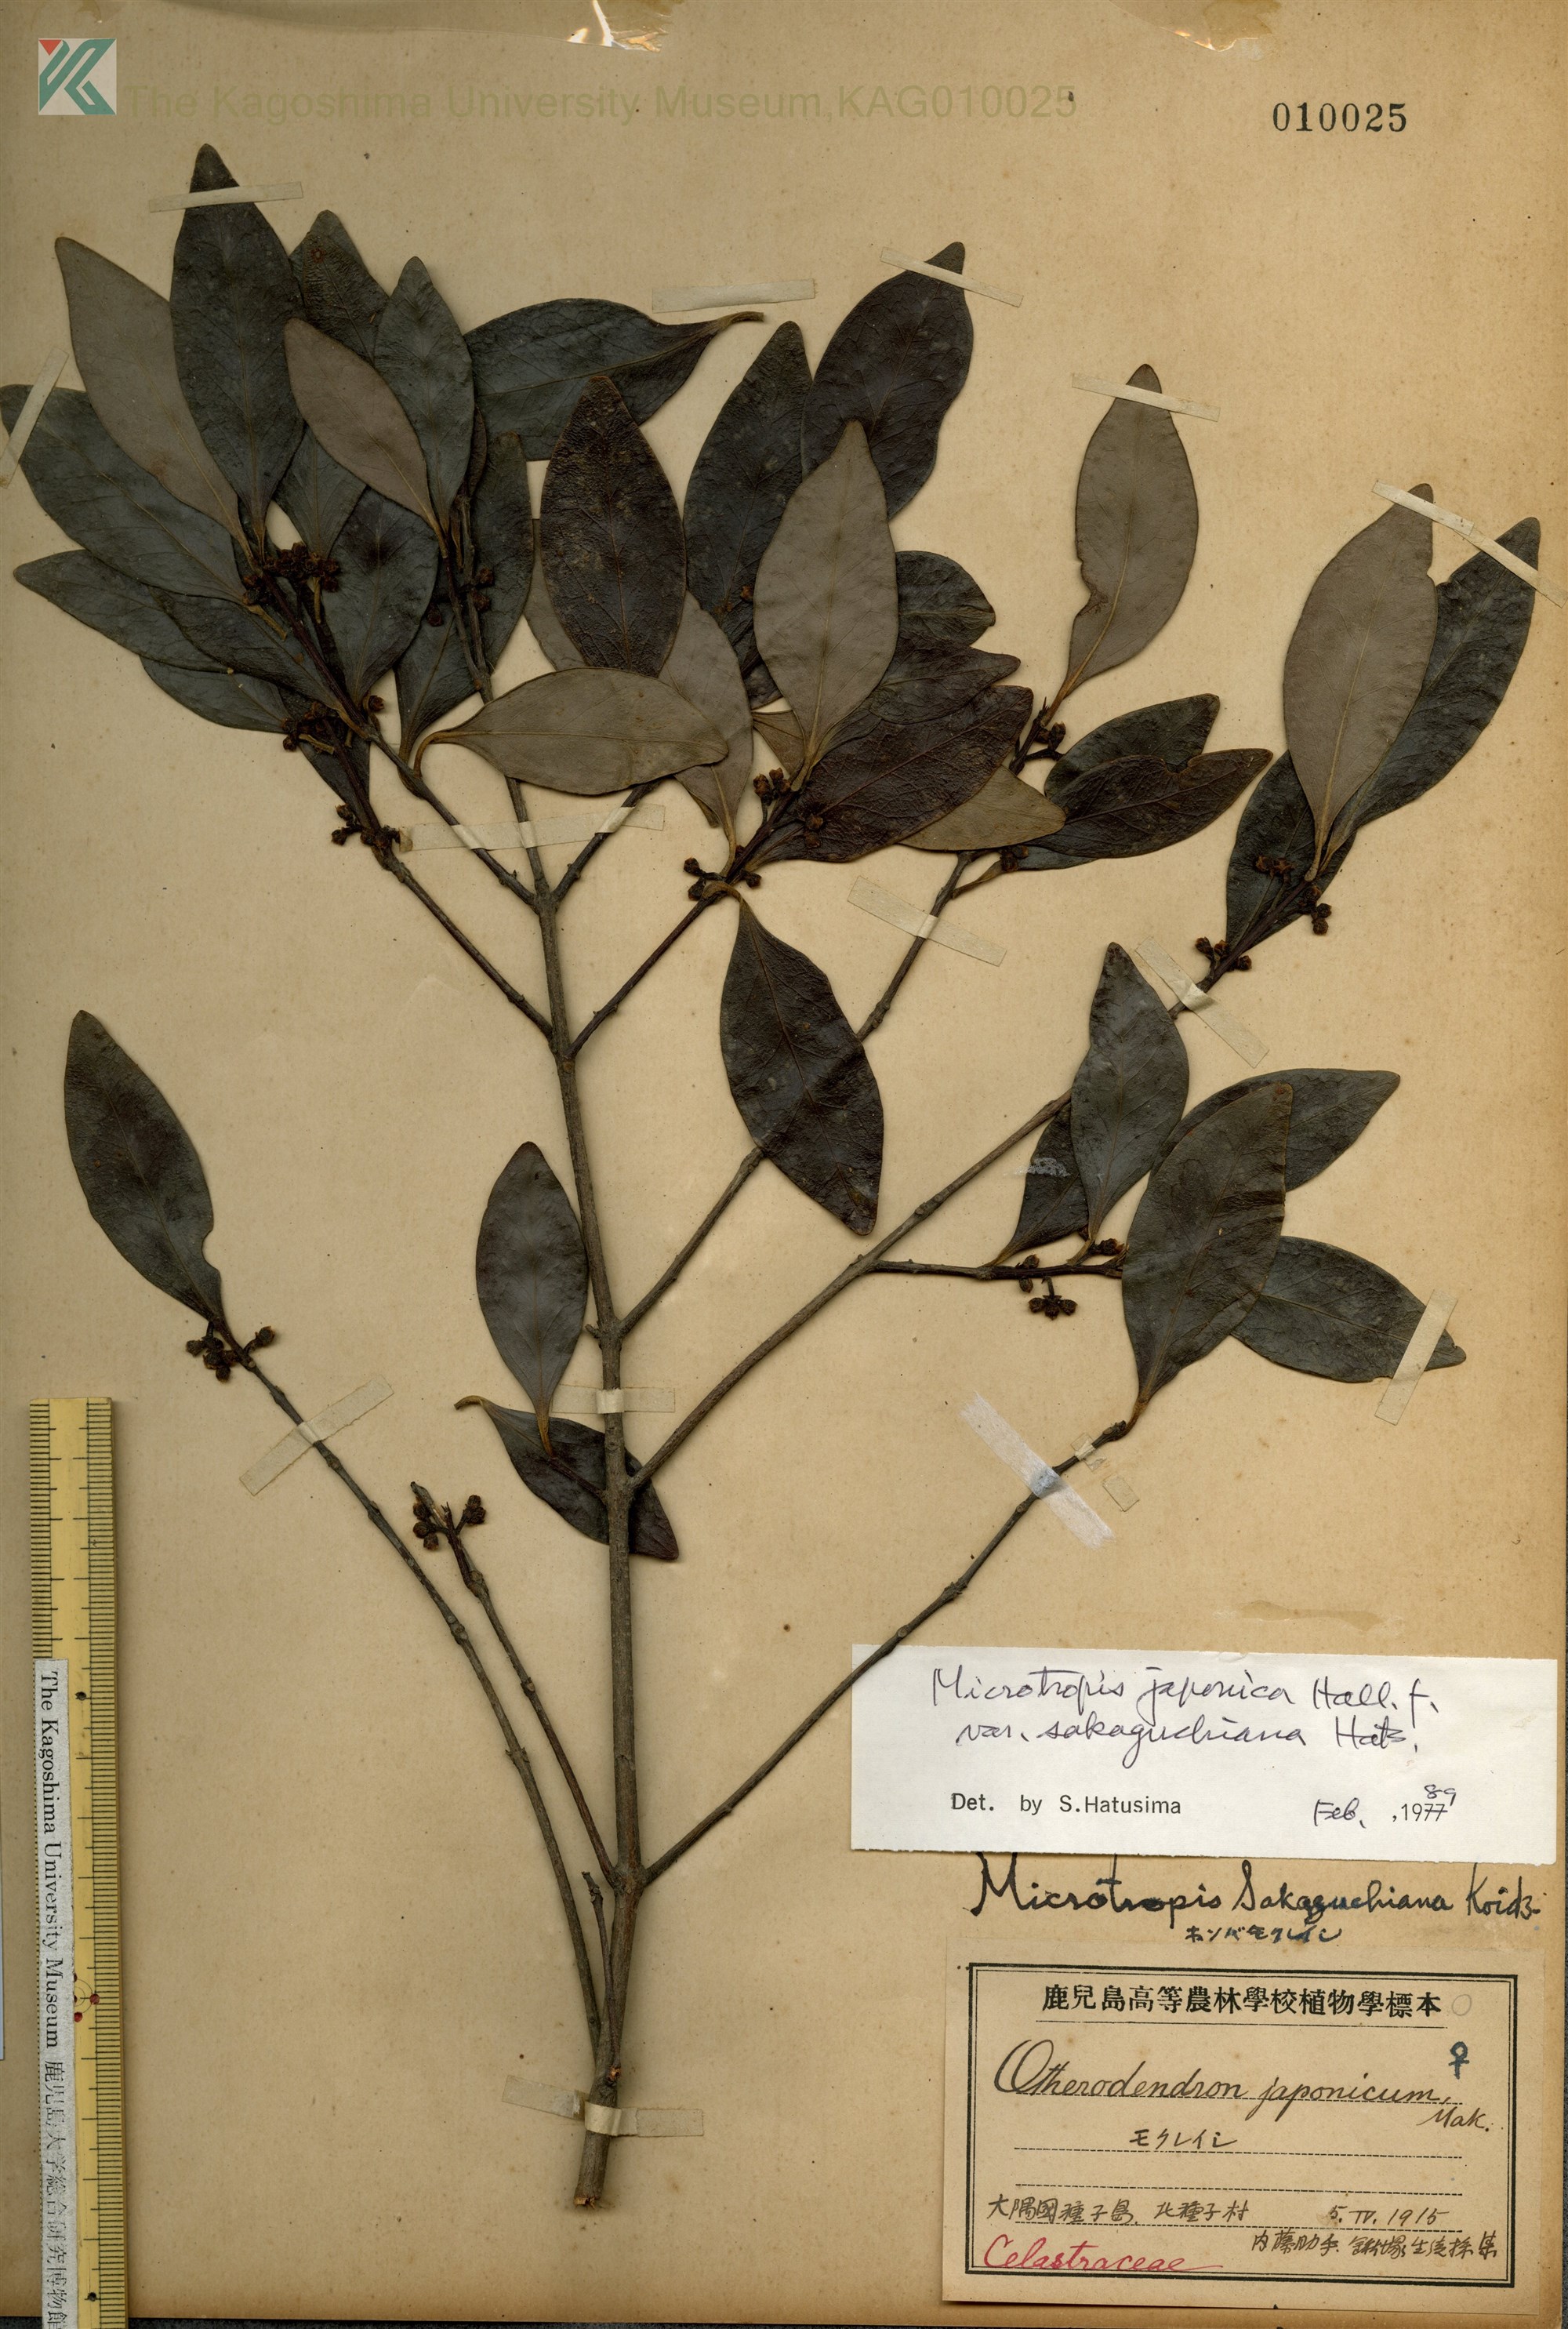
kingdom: Plantae
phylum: Tracheophyta
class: Magnoliopsida
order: Celastrales
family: Celastraceae
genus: Microtropis
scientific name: Microtropis japonica
